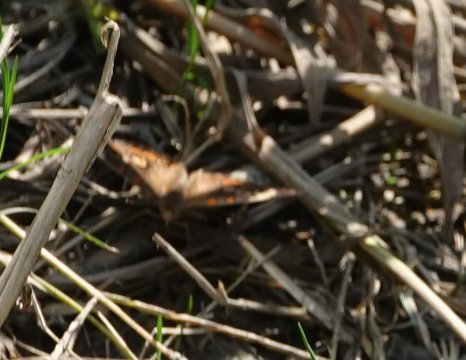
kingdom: Animalia
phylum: Arthropoda
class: Insecta
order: Lepidoptera
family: Nymphalidae
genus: Junonia
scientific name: Junonia coenia
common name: Common Buckeye
